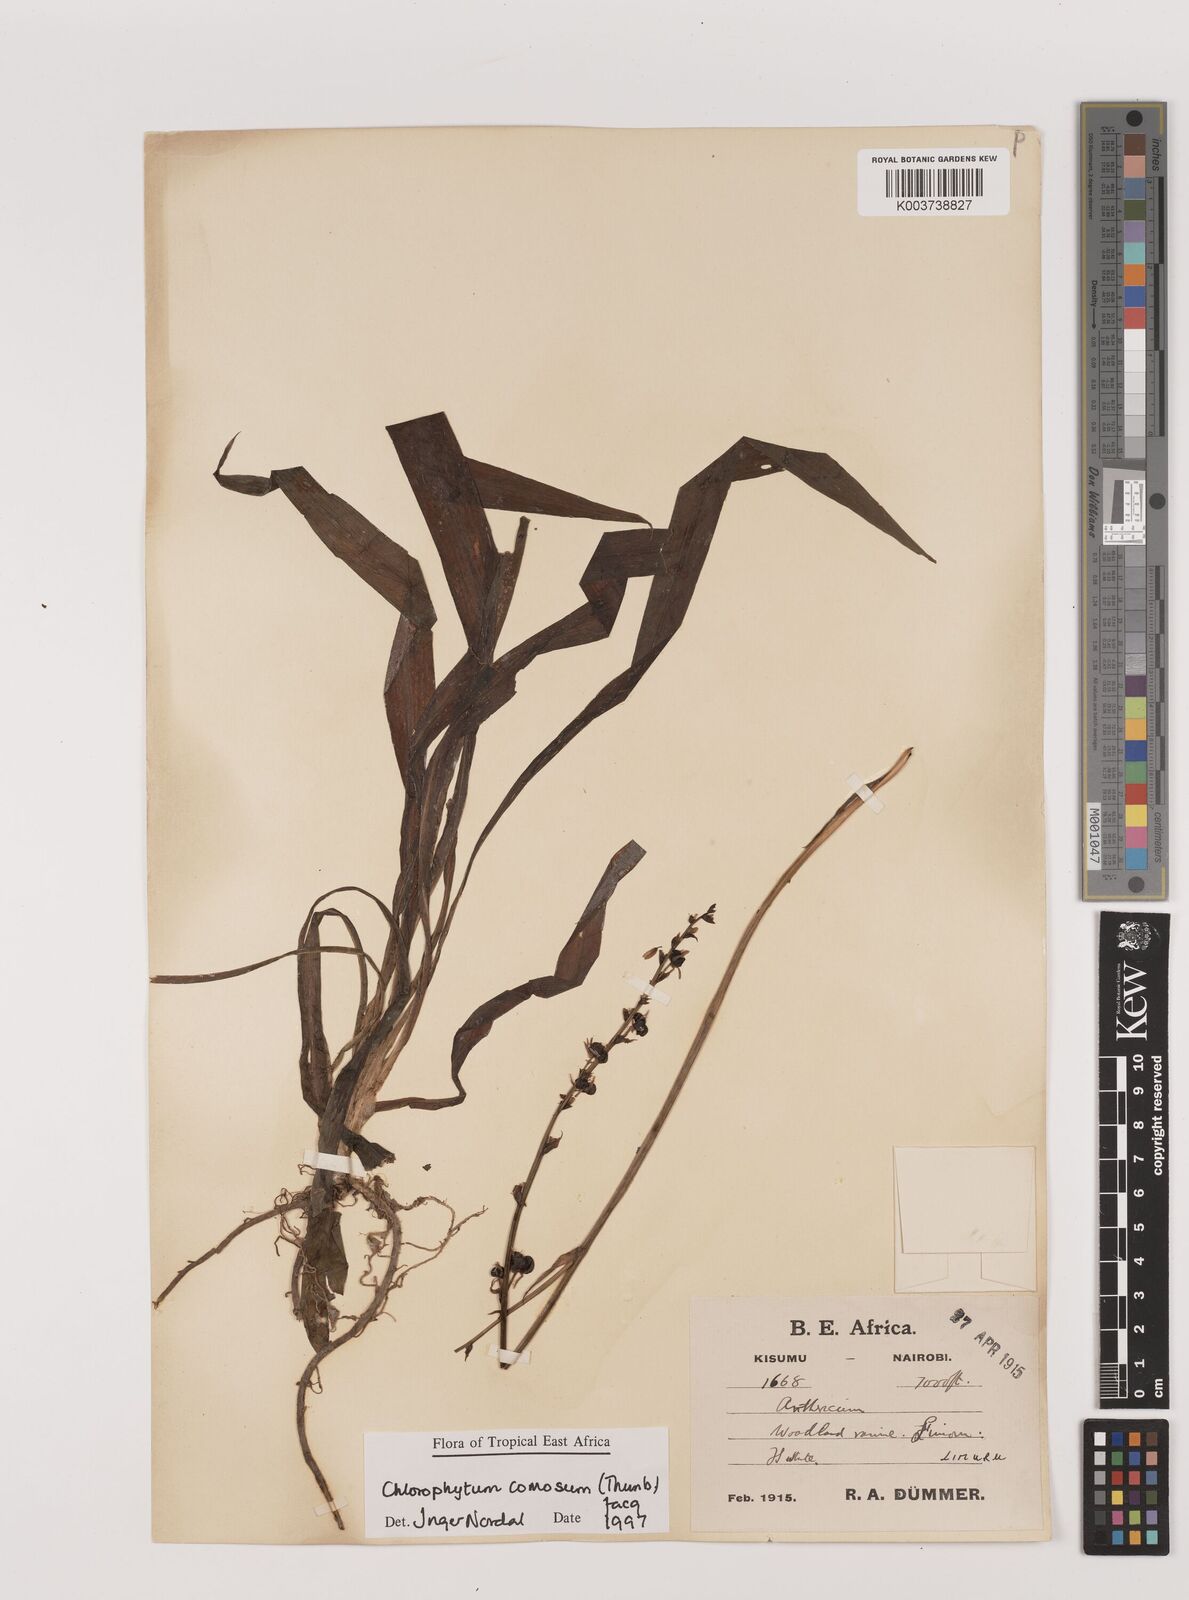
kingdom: Plantae
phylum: Tracheophyta
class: Liliopsida
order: Asparagales
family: Asparagaceae
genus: Chlorophytum
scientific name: Chlorophytum comosum
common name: Spider plant
